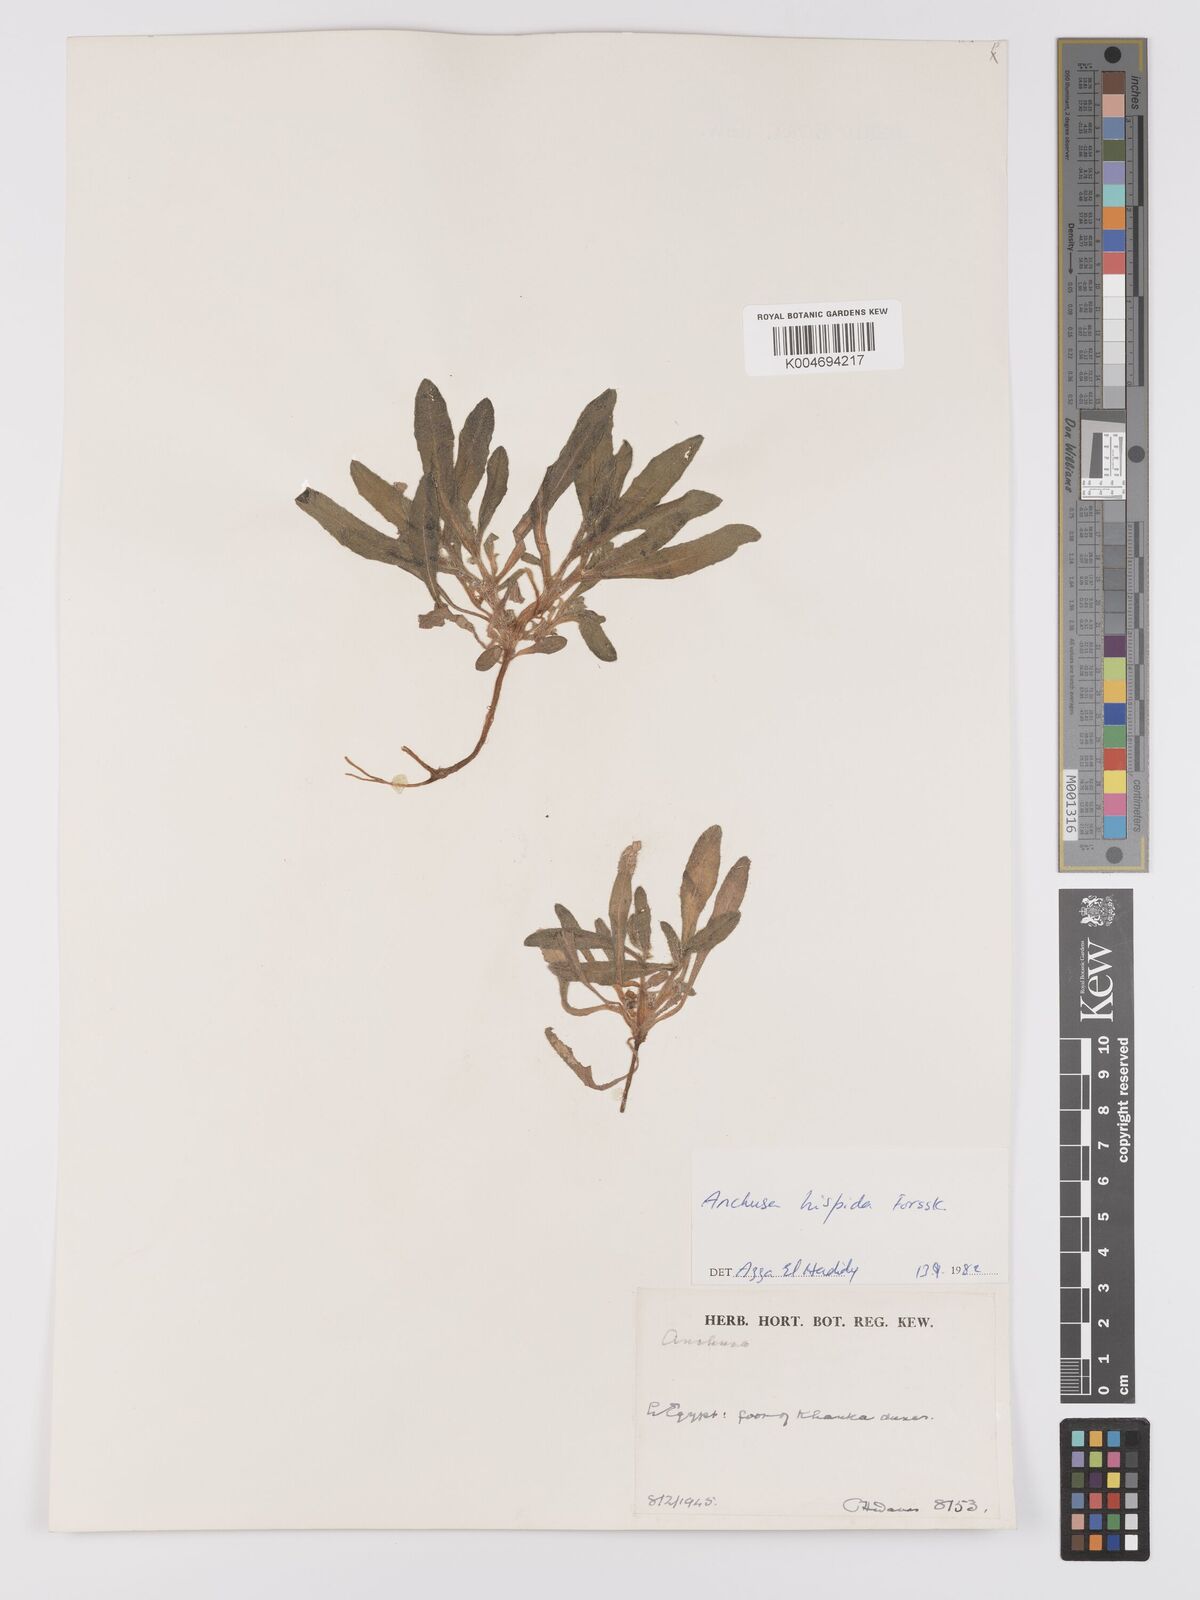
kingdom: Plantae
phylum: Tracheophyta
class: Magnoliopsida
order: Boraginales
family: Boraginaceae
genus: Gastrocotyle
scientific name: Gastrocotyle hispida
